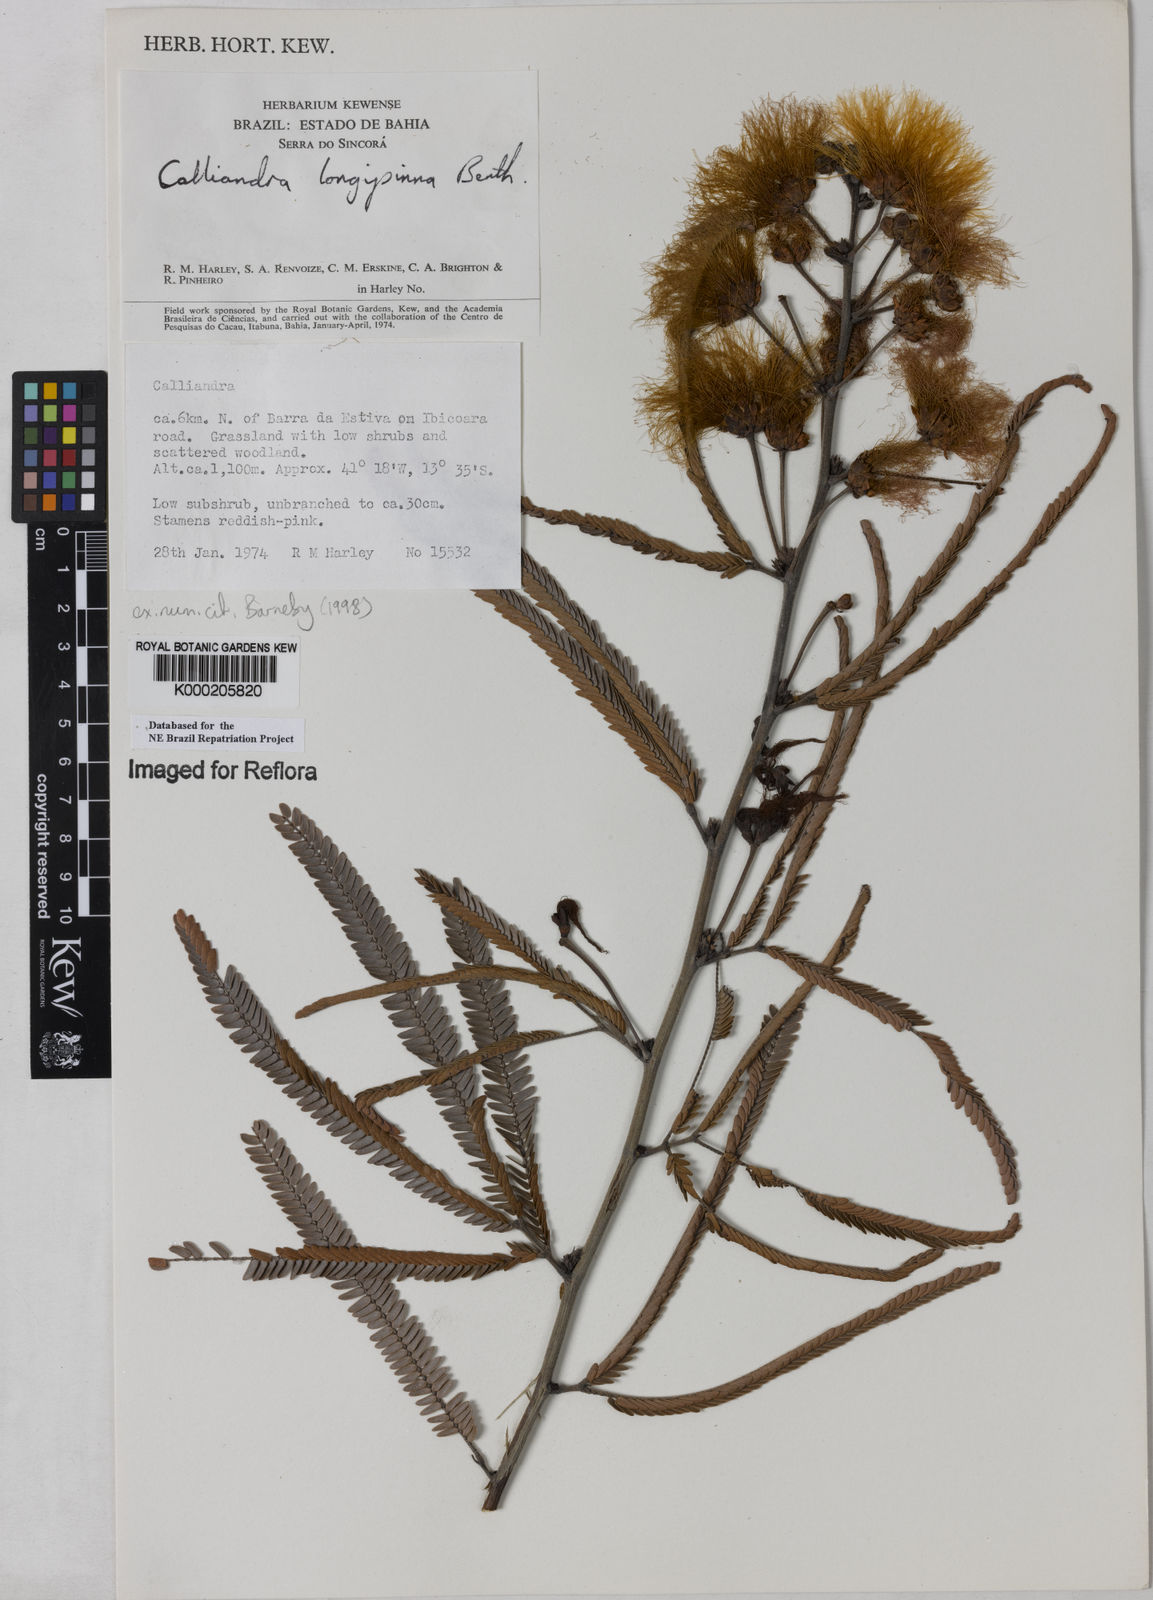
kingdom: Plantae
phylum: Tracheophyta
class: Magnoliopsida
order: Fabales
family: Fabaceae
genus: Calliandra
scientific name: Calliandra longipinna
